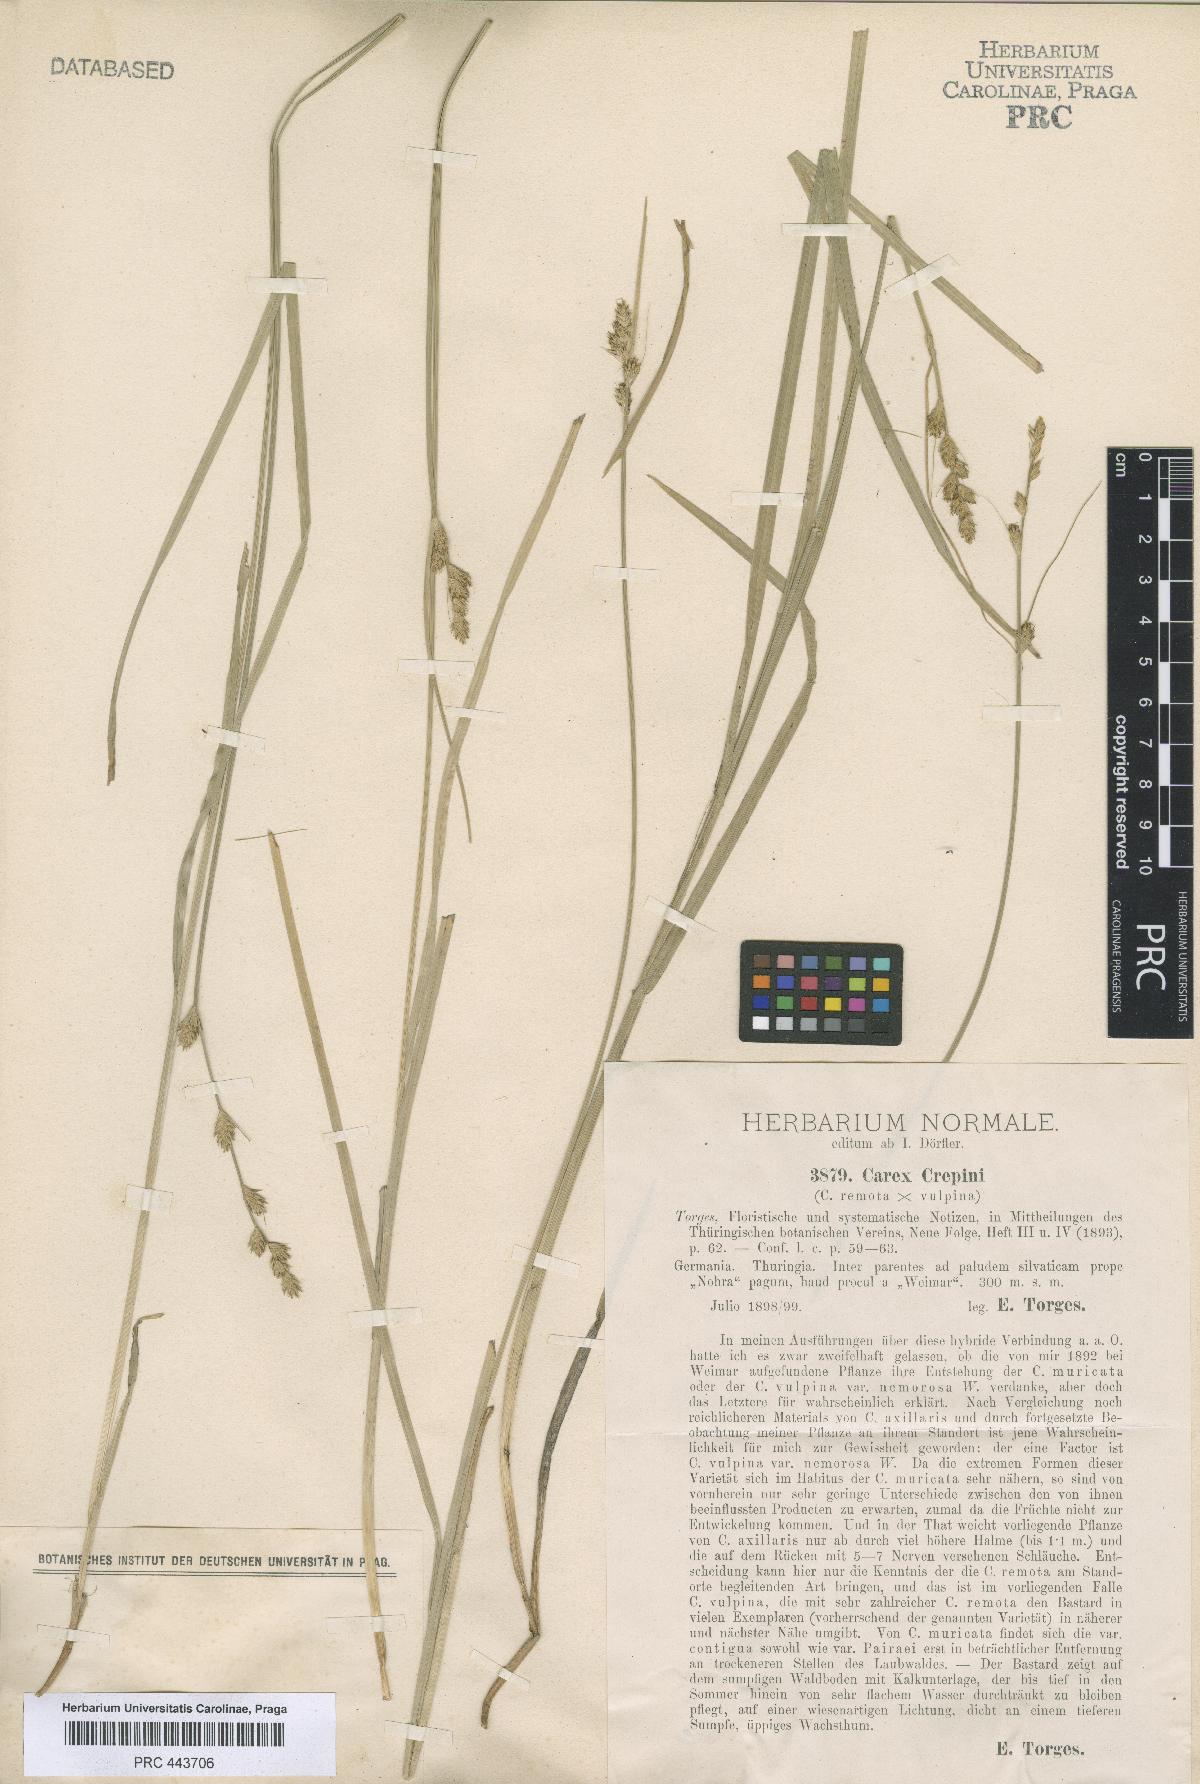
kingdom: Plantae
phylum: Tracheophyta
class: Liliopsida
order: Poales
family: Cyperaceae
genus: Carex
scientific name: Carex pseudoaxillaris
